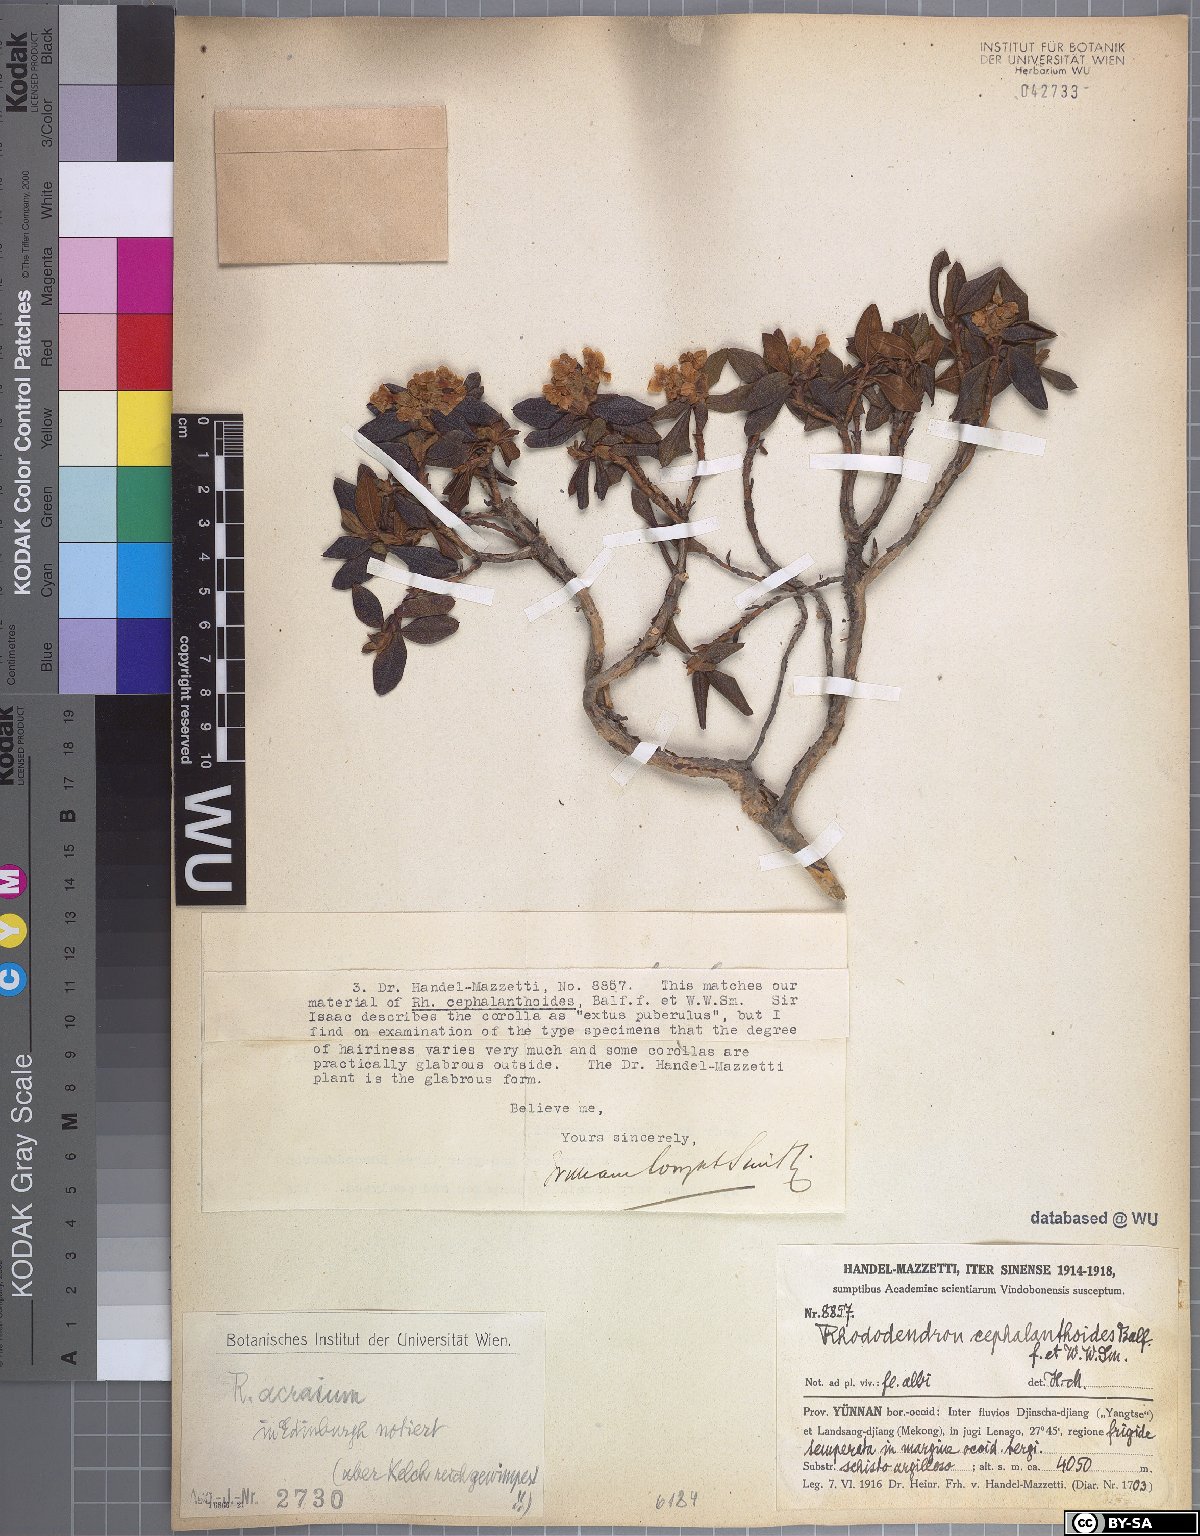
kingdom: Plantae
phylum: Tracheophyta
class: Magnoliopsida
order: Ericales
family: Ericaceae
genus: Rhododendron
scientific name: Rhododendron primuliflorum
